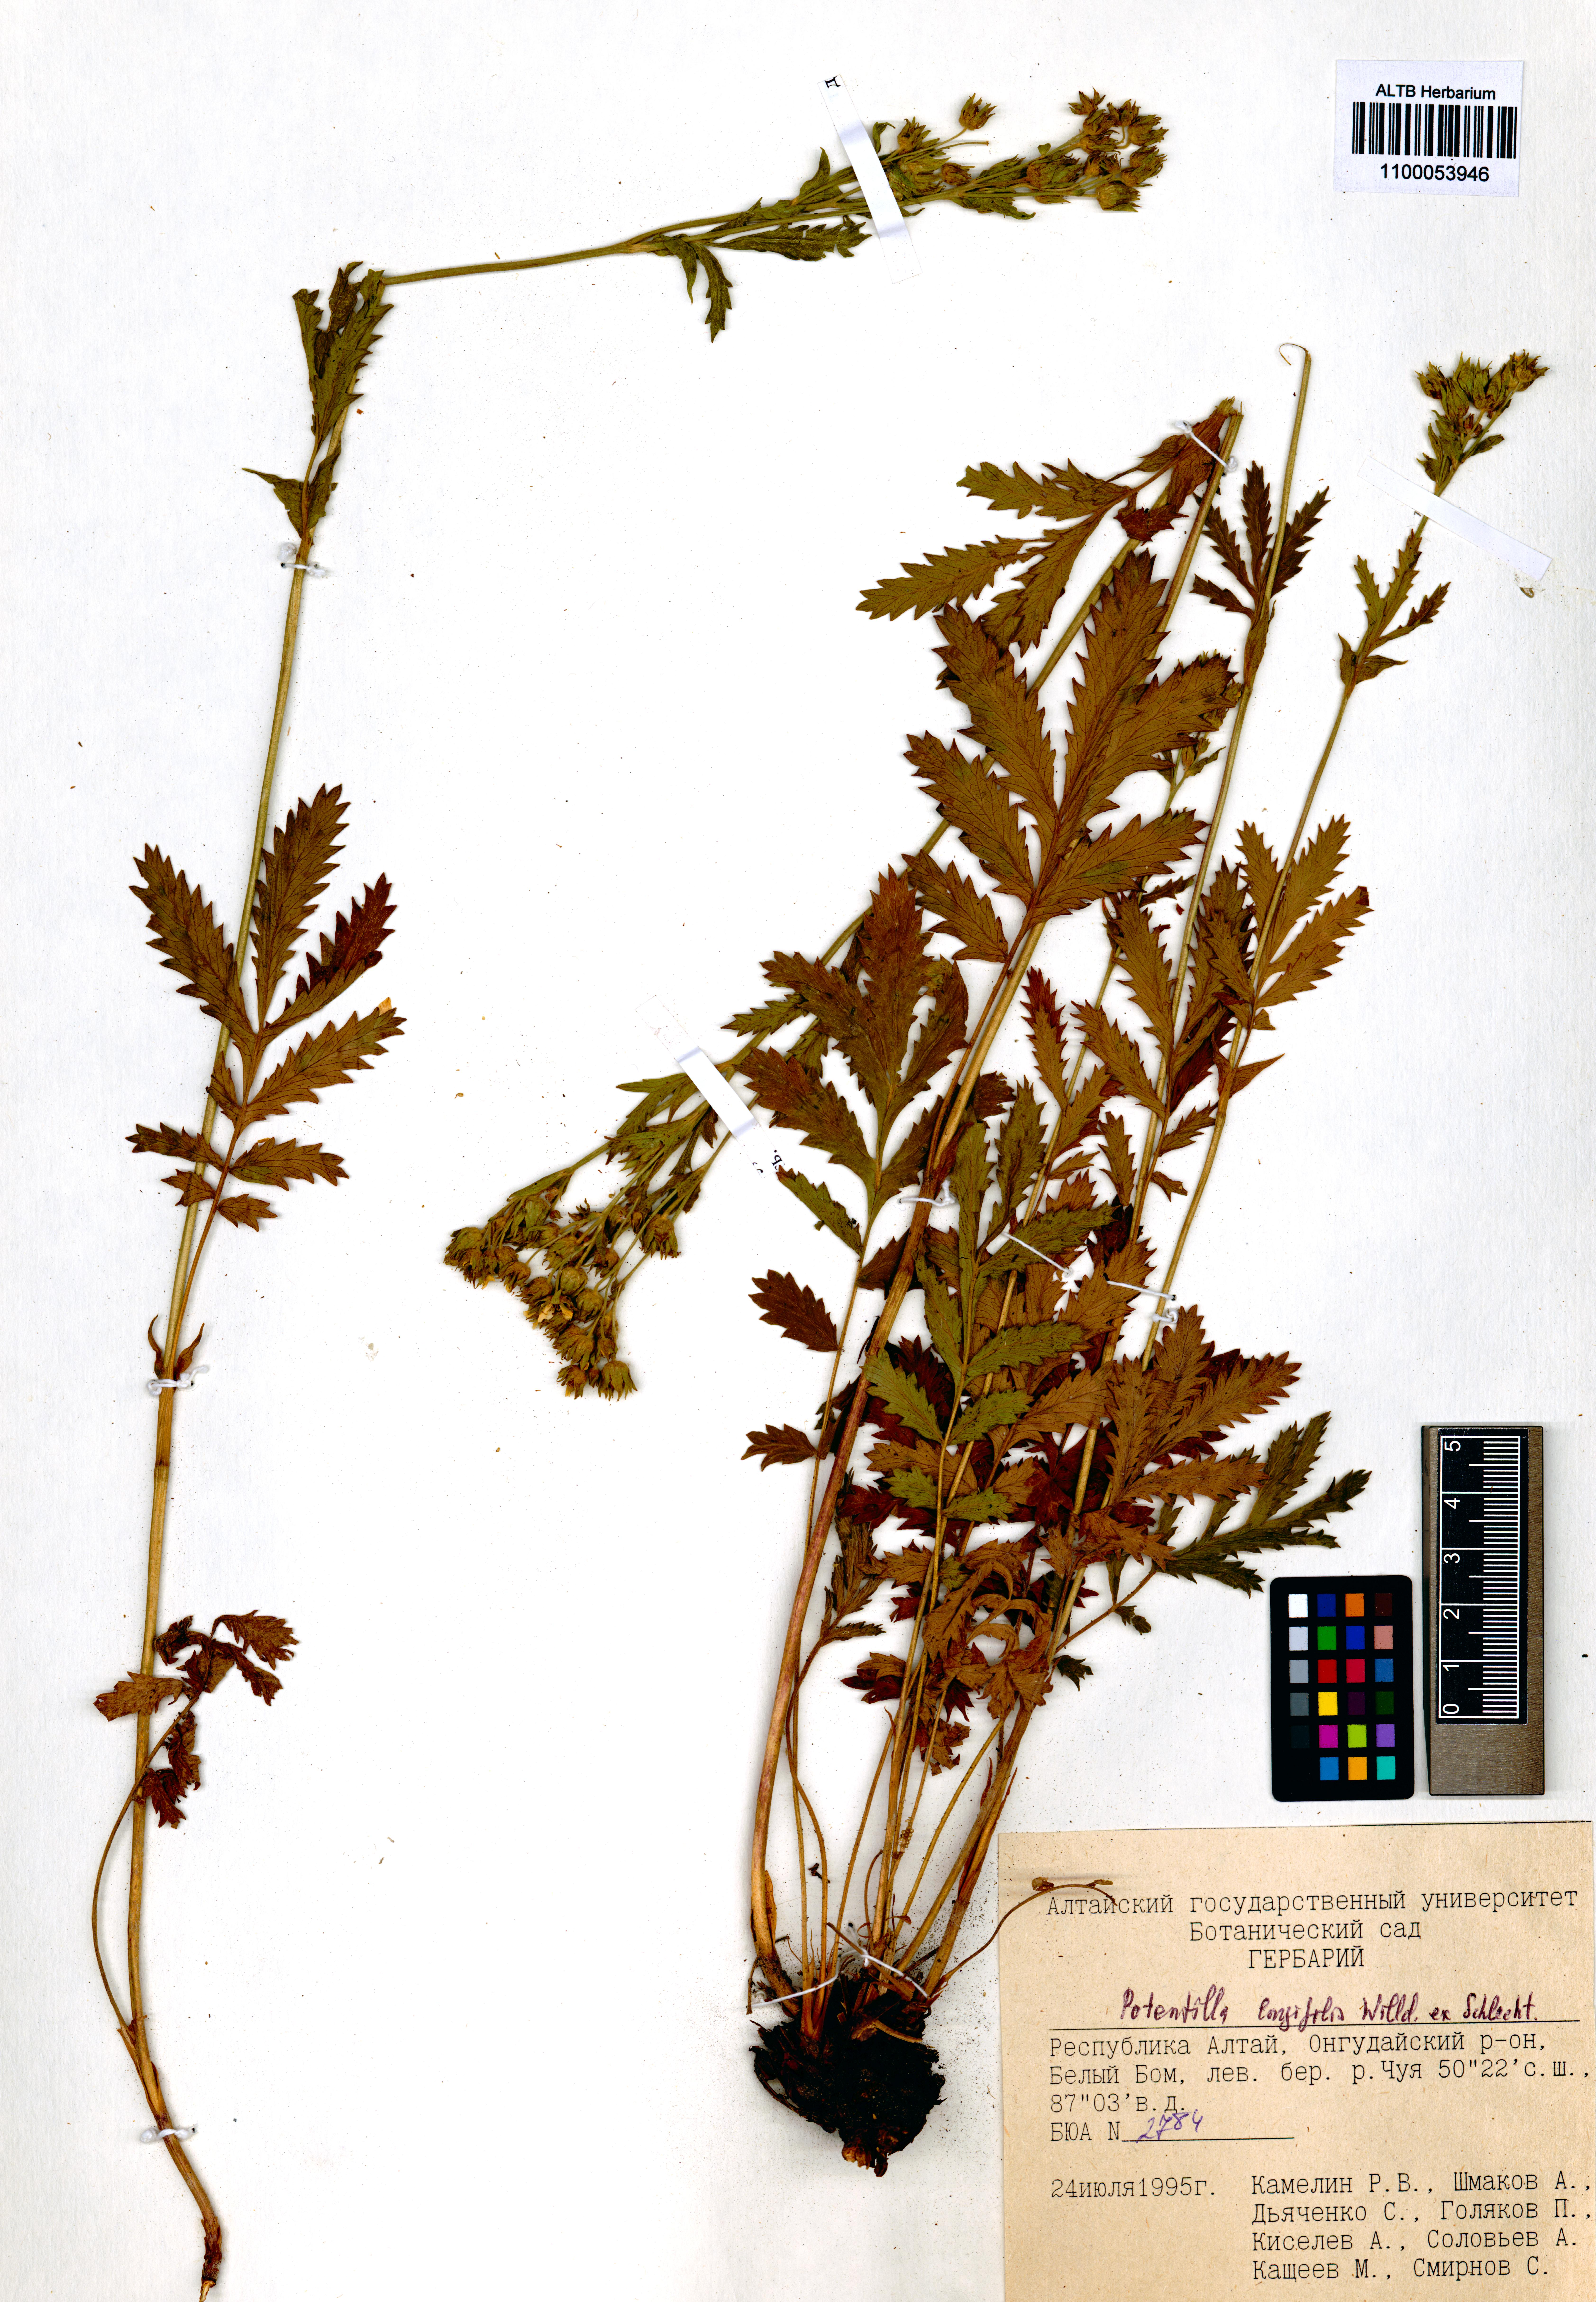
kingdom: Plantae
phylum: Tracheophyta
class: Magnoliopsida
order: Rosales
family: Rosaceae
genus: Potentilla
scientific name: Potentilla longifolia
